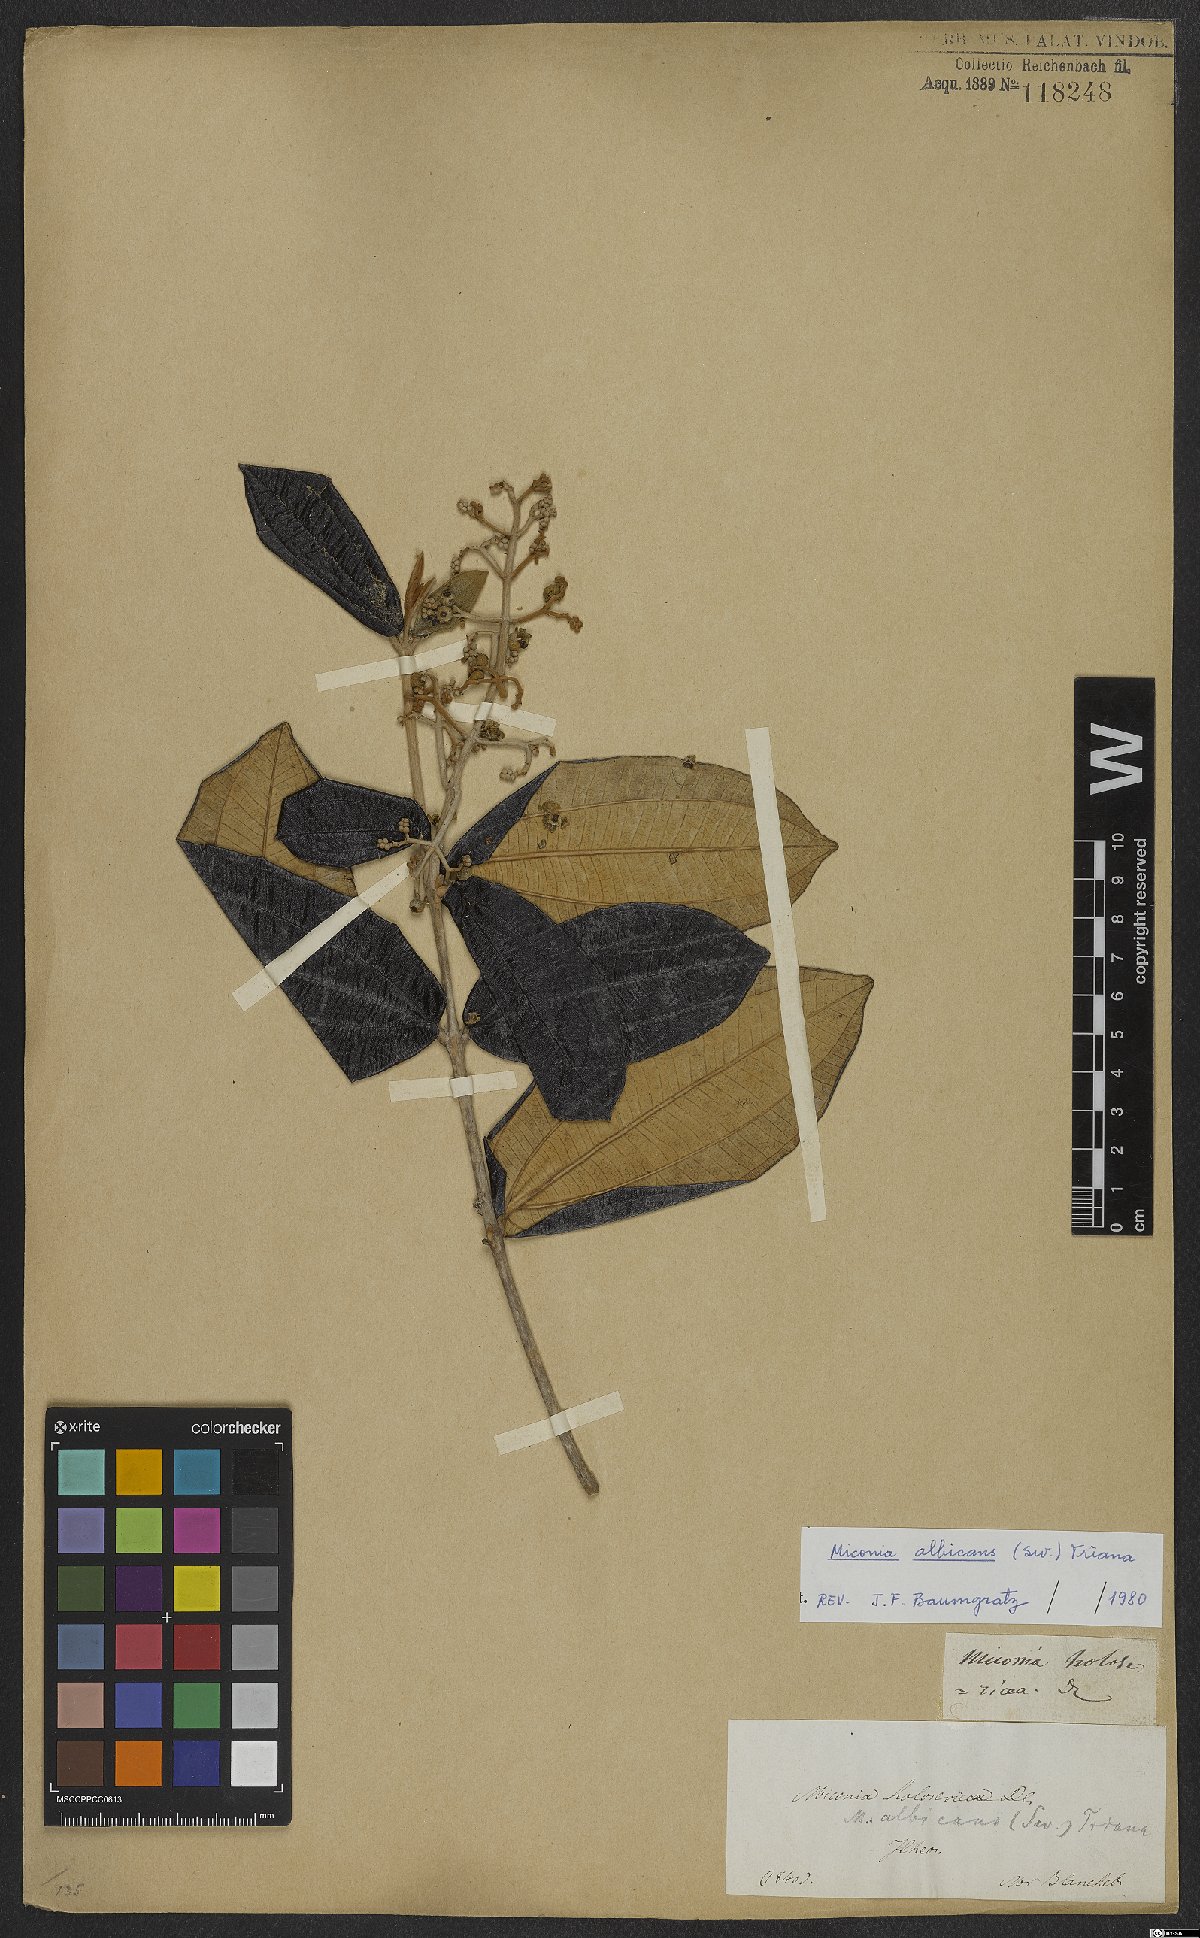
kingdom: Plantae
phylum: Tracheophyta
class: Magnoliopsida
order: Myrtales
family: Melastomataceae
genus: Miconia
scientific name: Miconia albicans
